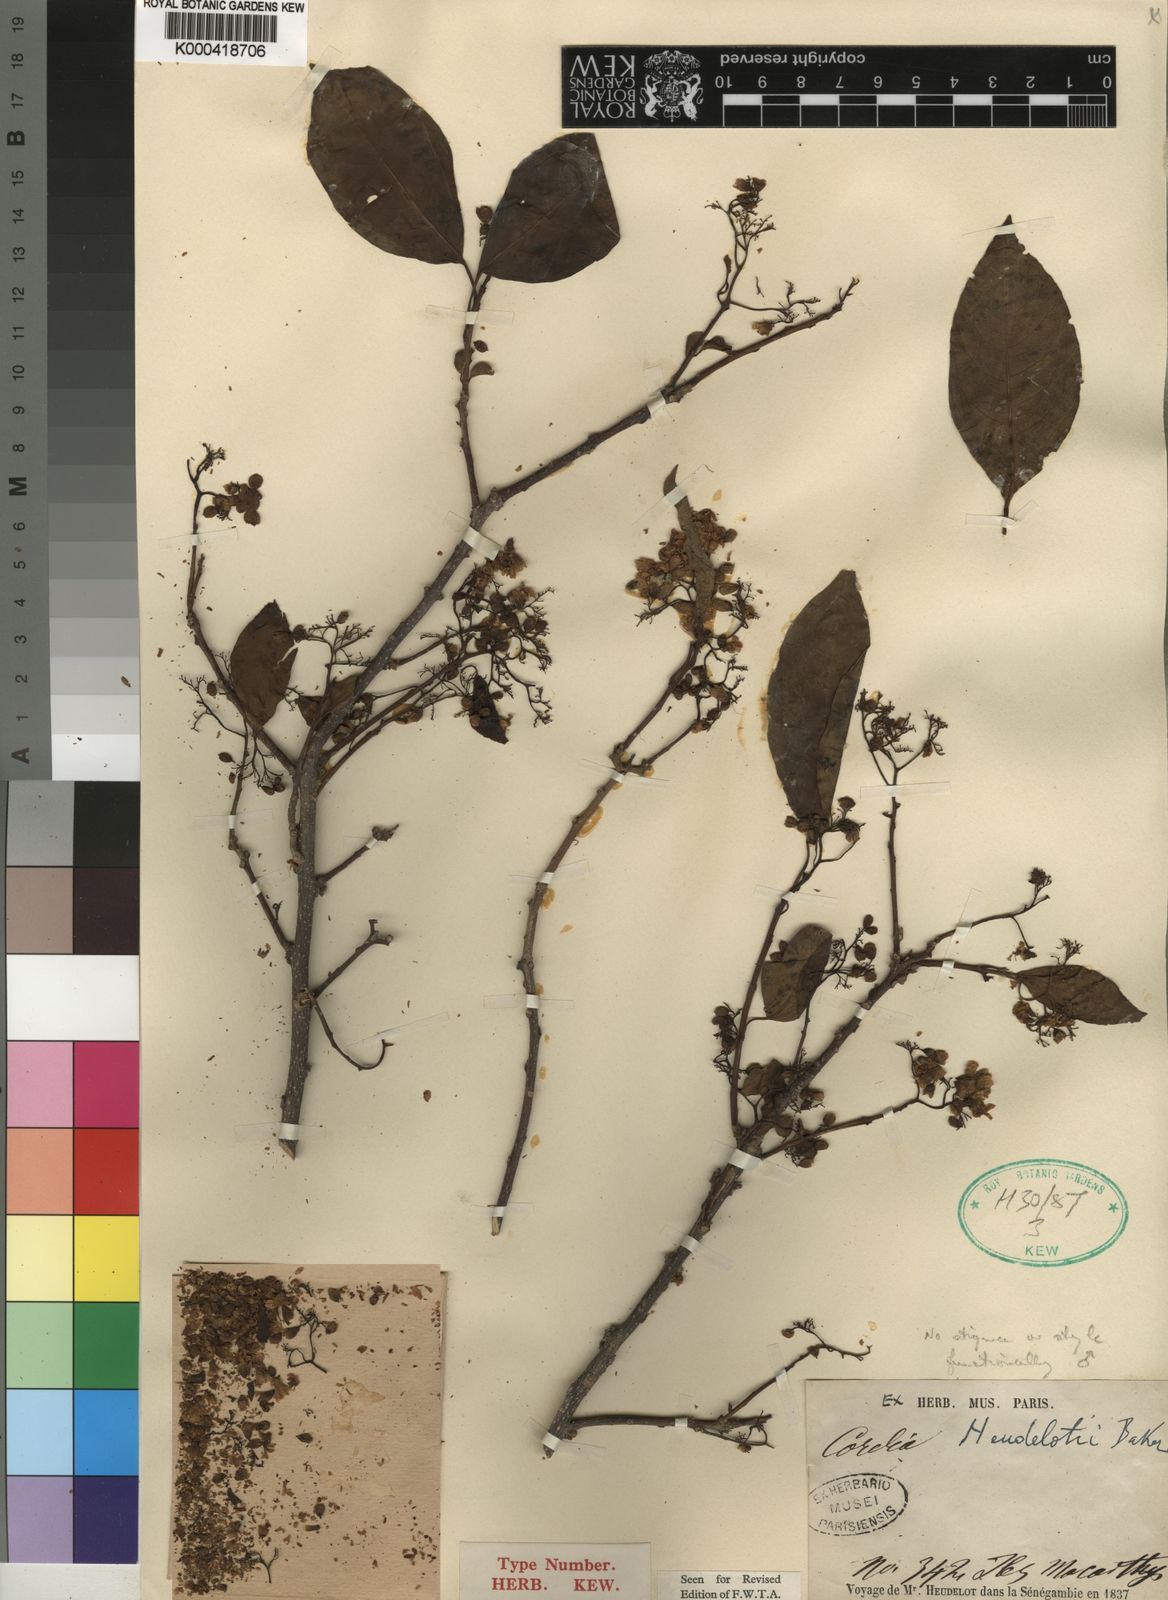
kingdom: Plantae
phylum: Tracheophyta
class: Magnoliopsida
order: Boraginales
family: Cordiaceae
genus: Cordia
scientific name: Cordia
